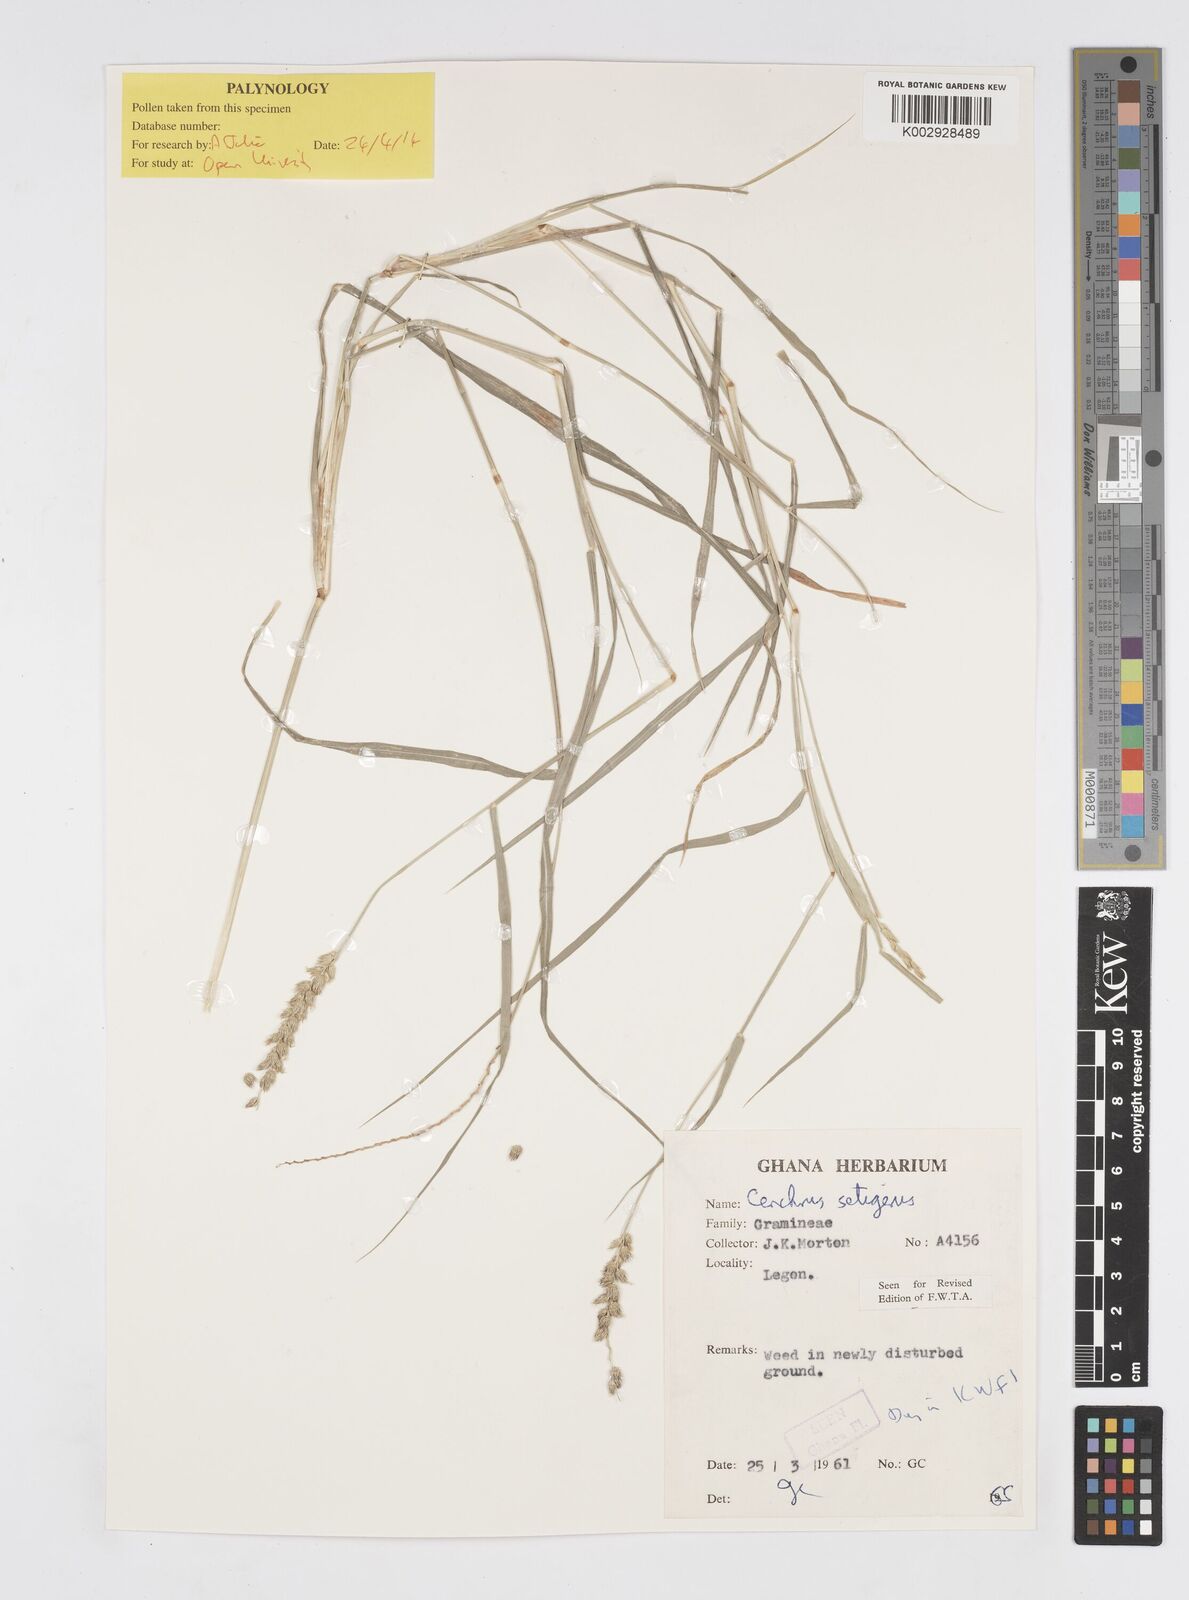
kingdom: Plantae
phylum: Tracheophyta
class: Liliopsida
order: Poales
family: Poaceae
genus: Cenchrus
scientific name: Cenchrus setigerus
